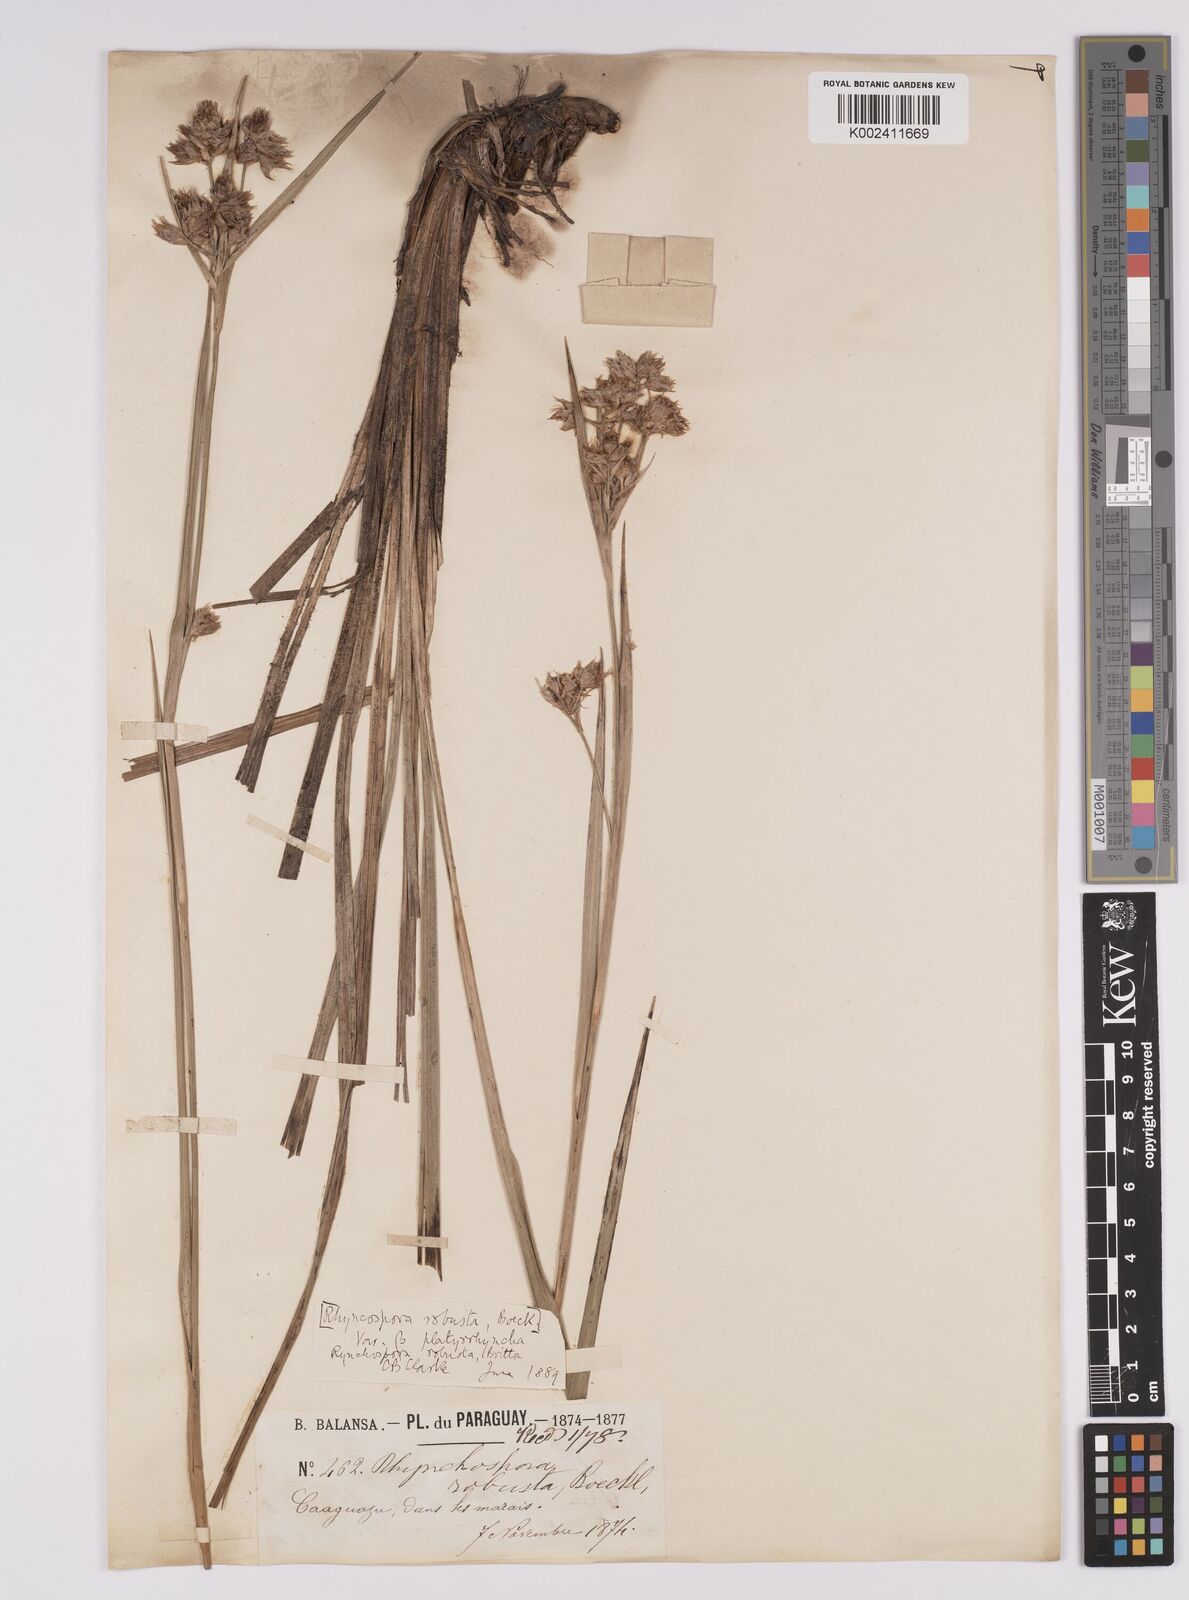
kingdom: Plantae
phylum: Tracheophyta
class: Liliopsida
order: Poales
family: Cyperaceae
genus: Rhynchospora
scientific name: Rhynchospora robusta
